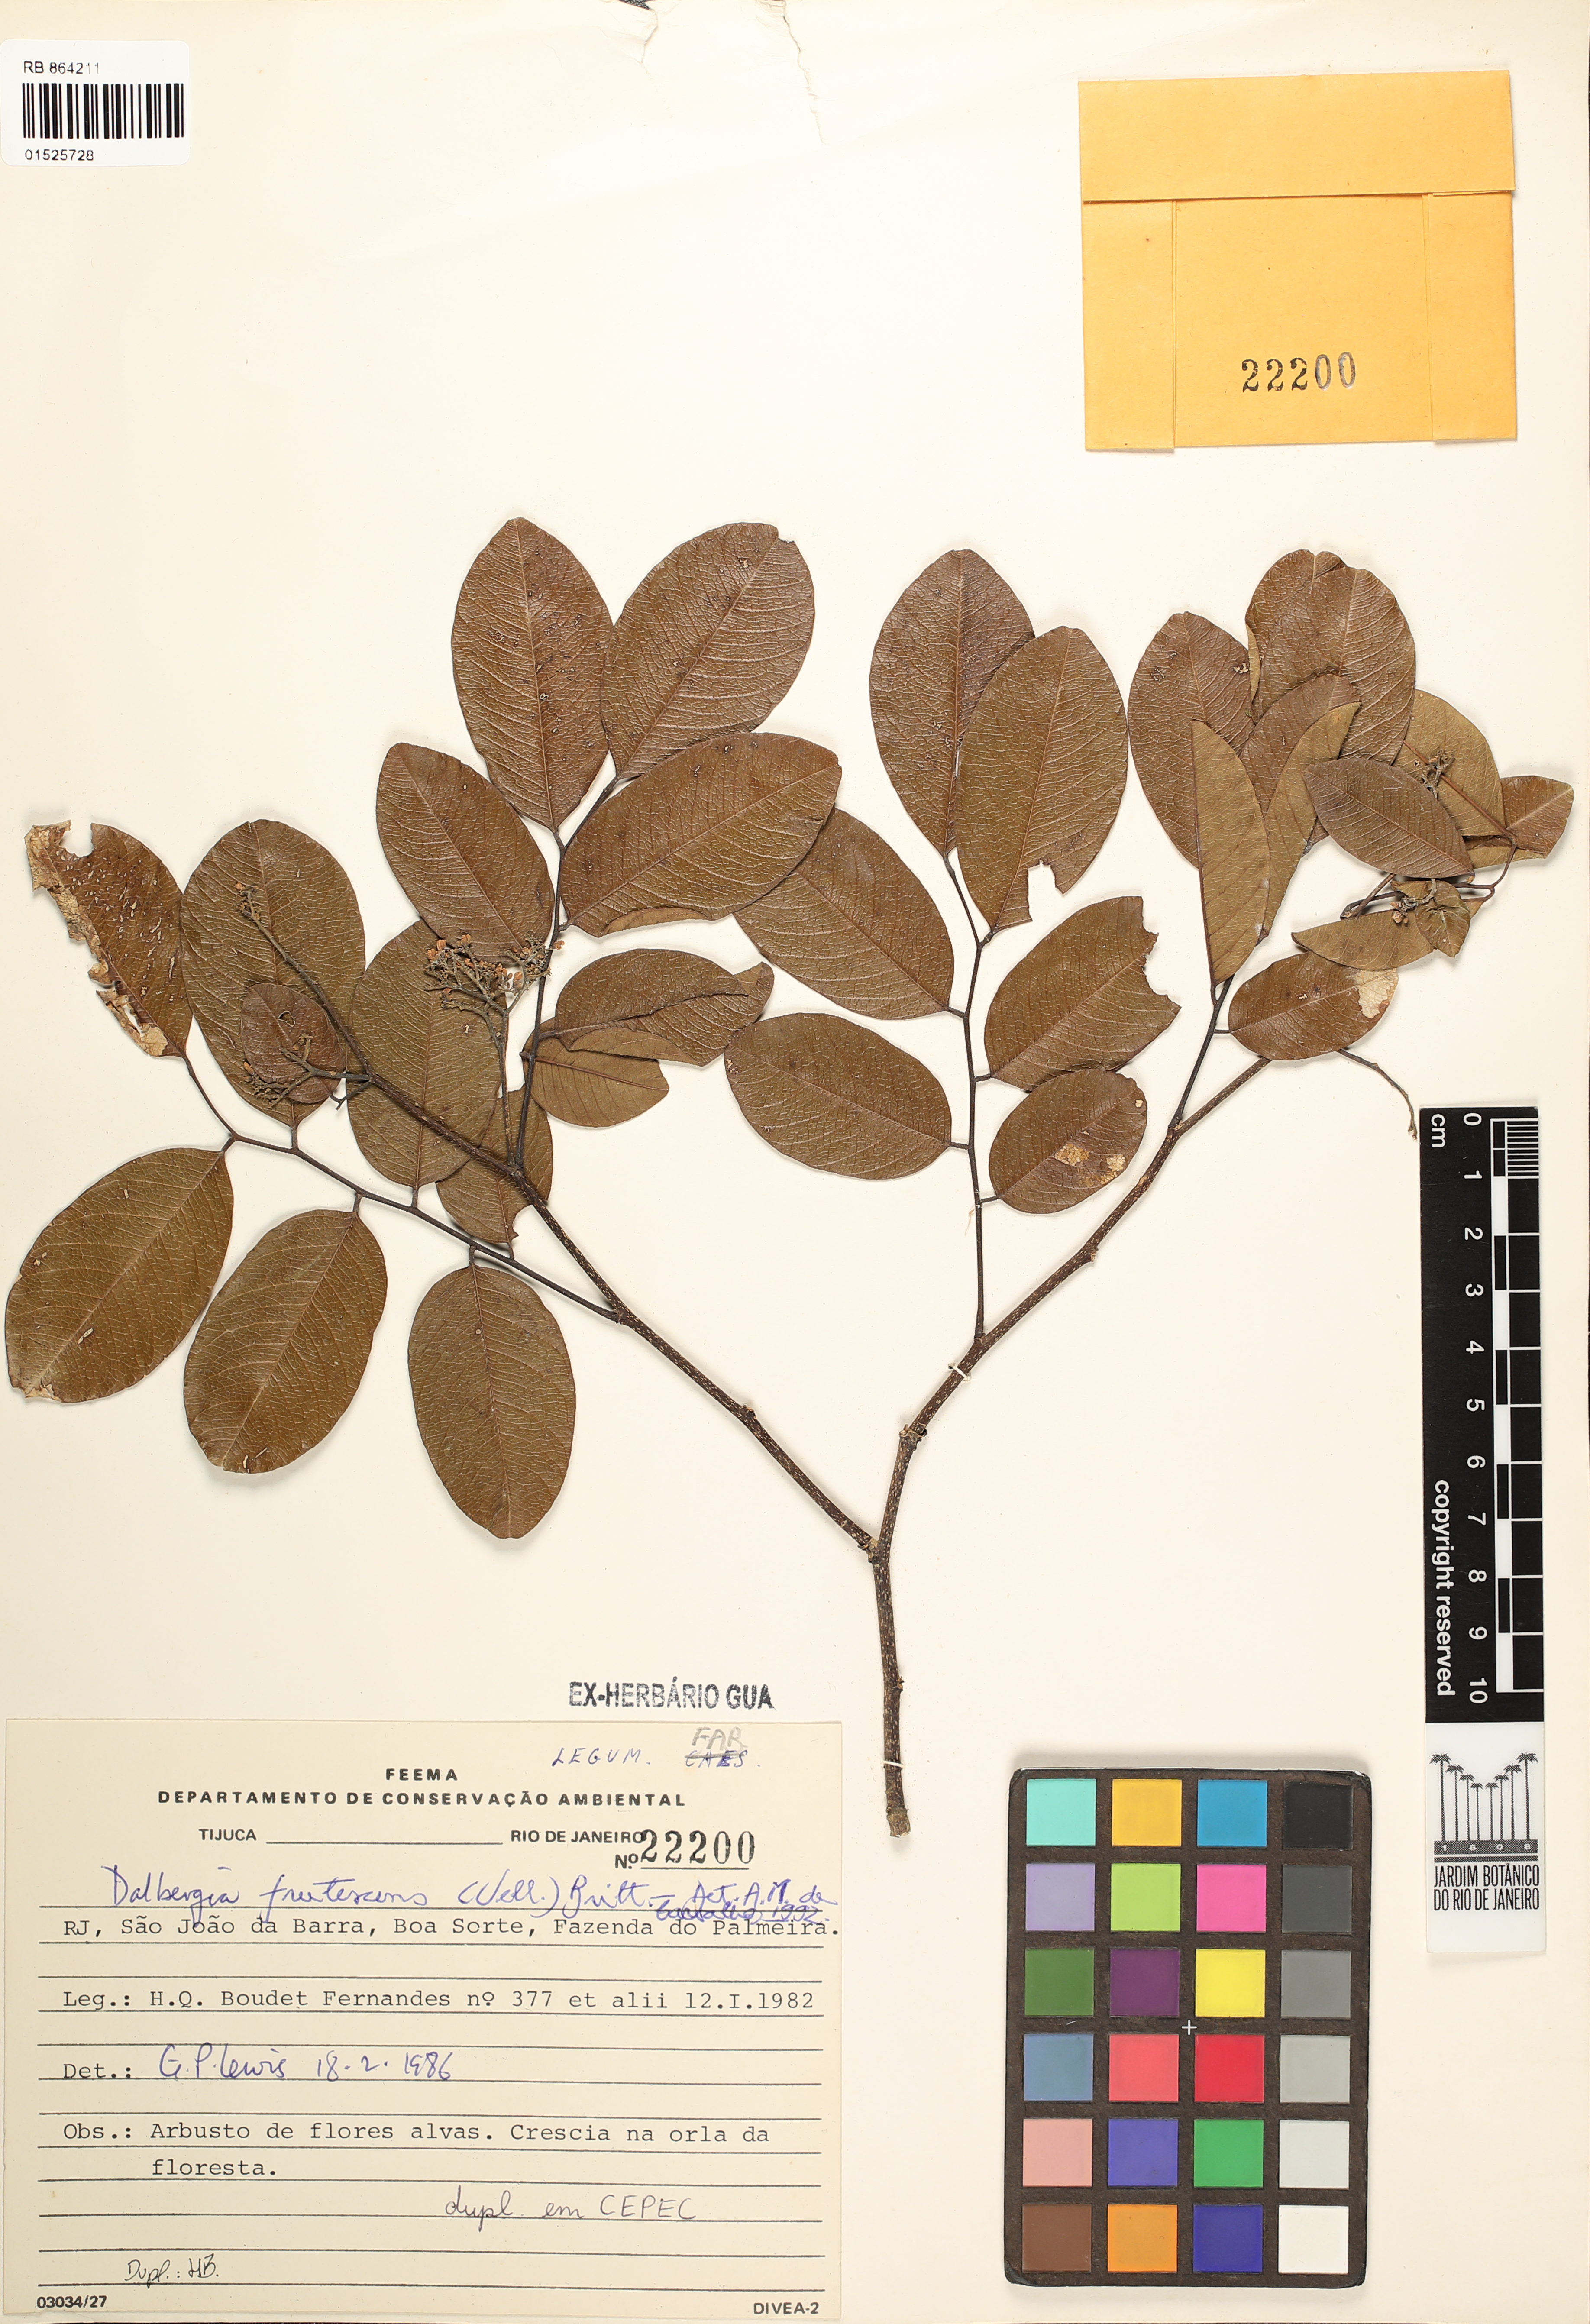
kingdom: Plantae
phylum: Tracheophyta
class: Magnoliopsida
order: Fabales
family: Fabaceae
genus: Dalbergia
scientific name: Dalbergia frutescens
